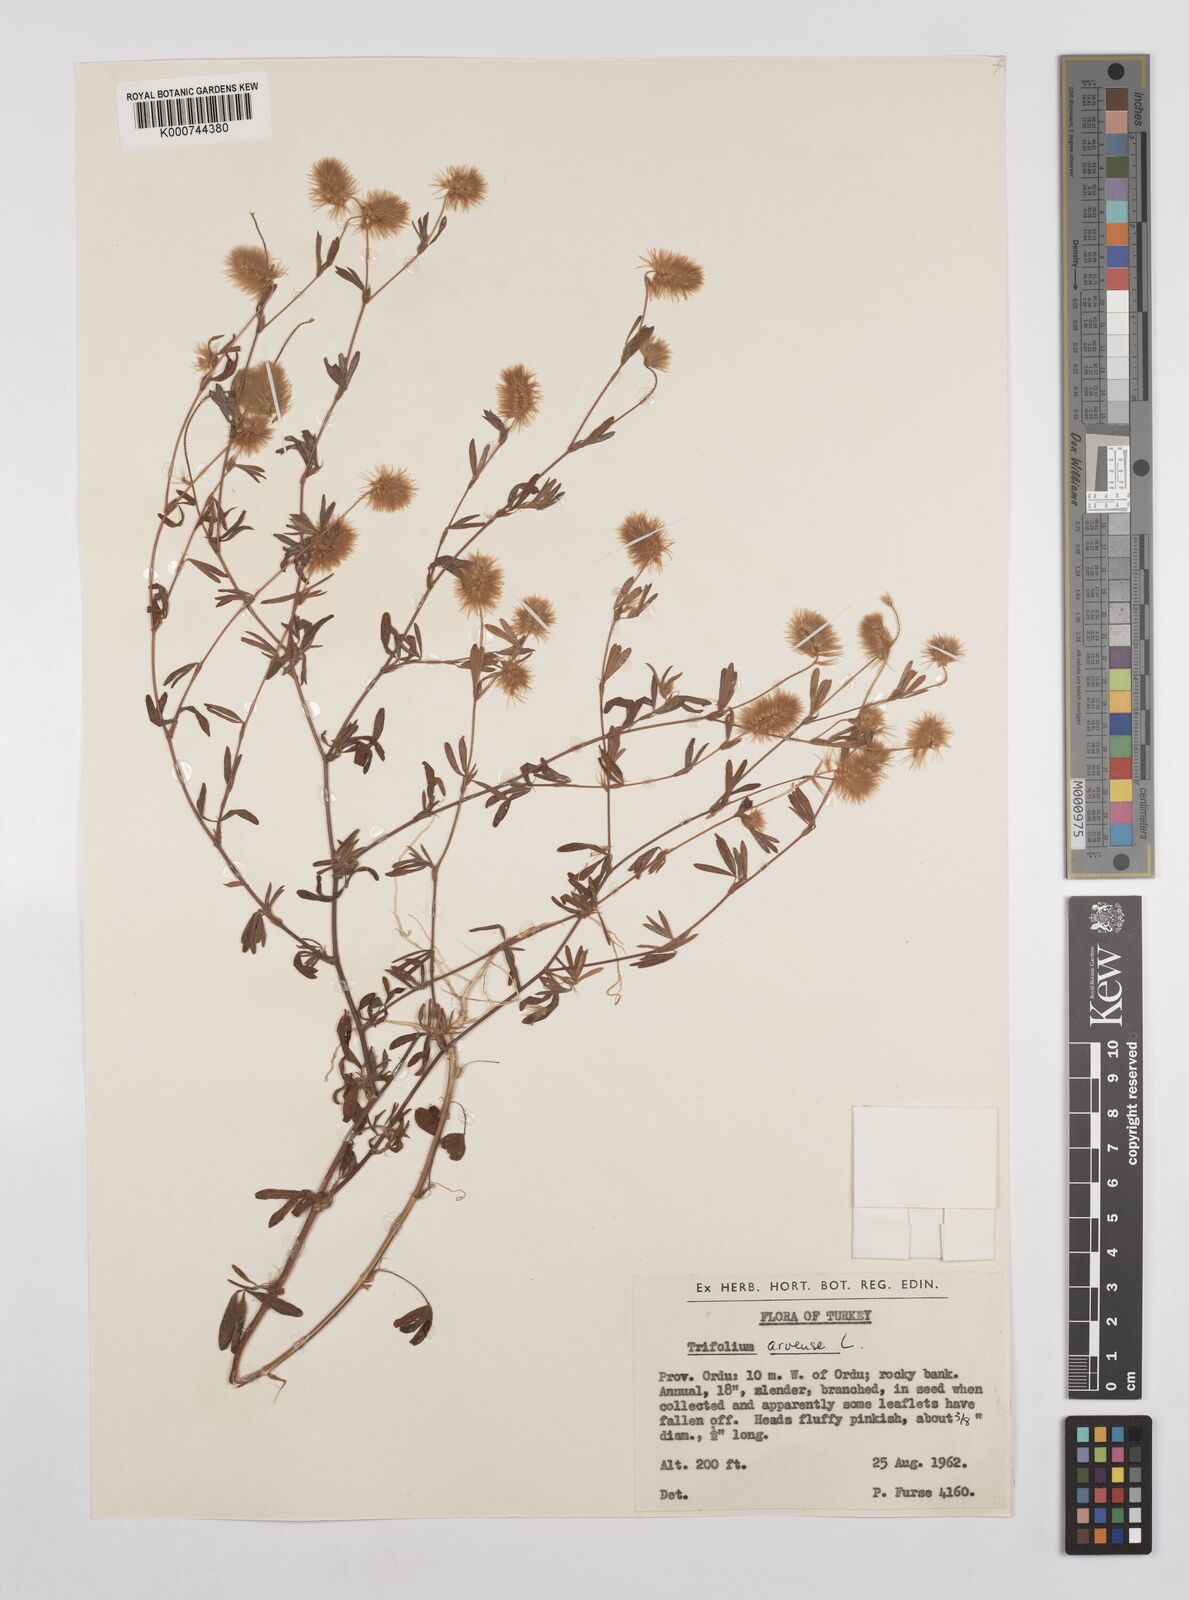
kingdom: Plantae
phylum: Tracheophyta
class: Magnoliopsida
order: Fabales
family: Fabaceae
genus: Trifolium
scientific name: Trifolium arvense
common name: Hare's-foot clover
